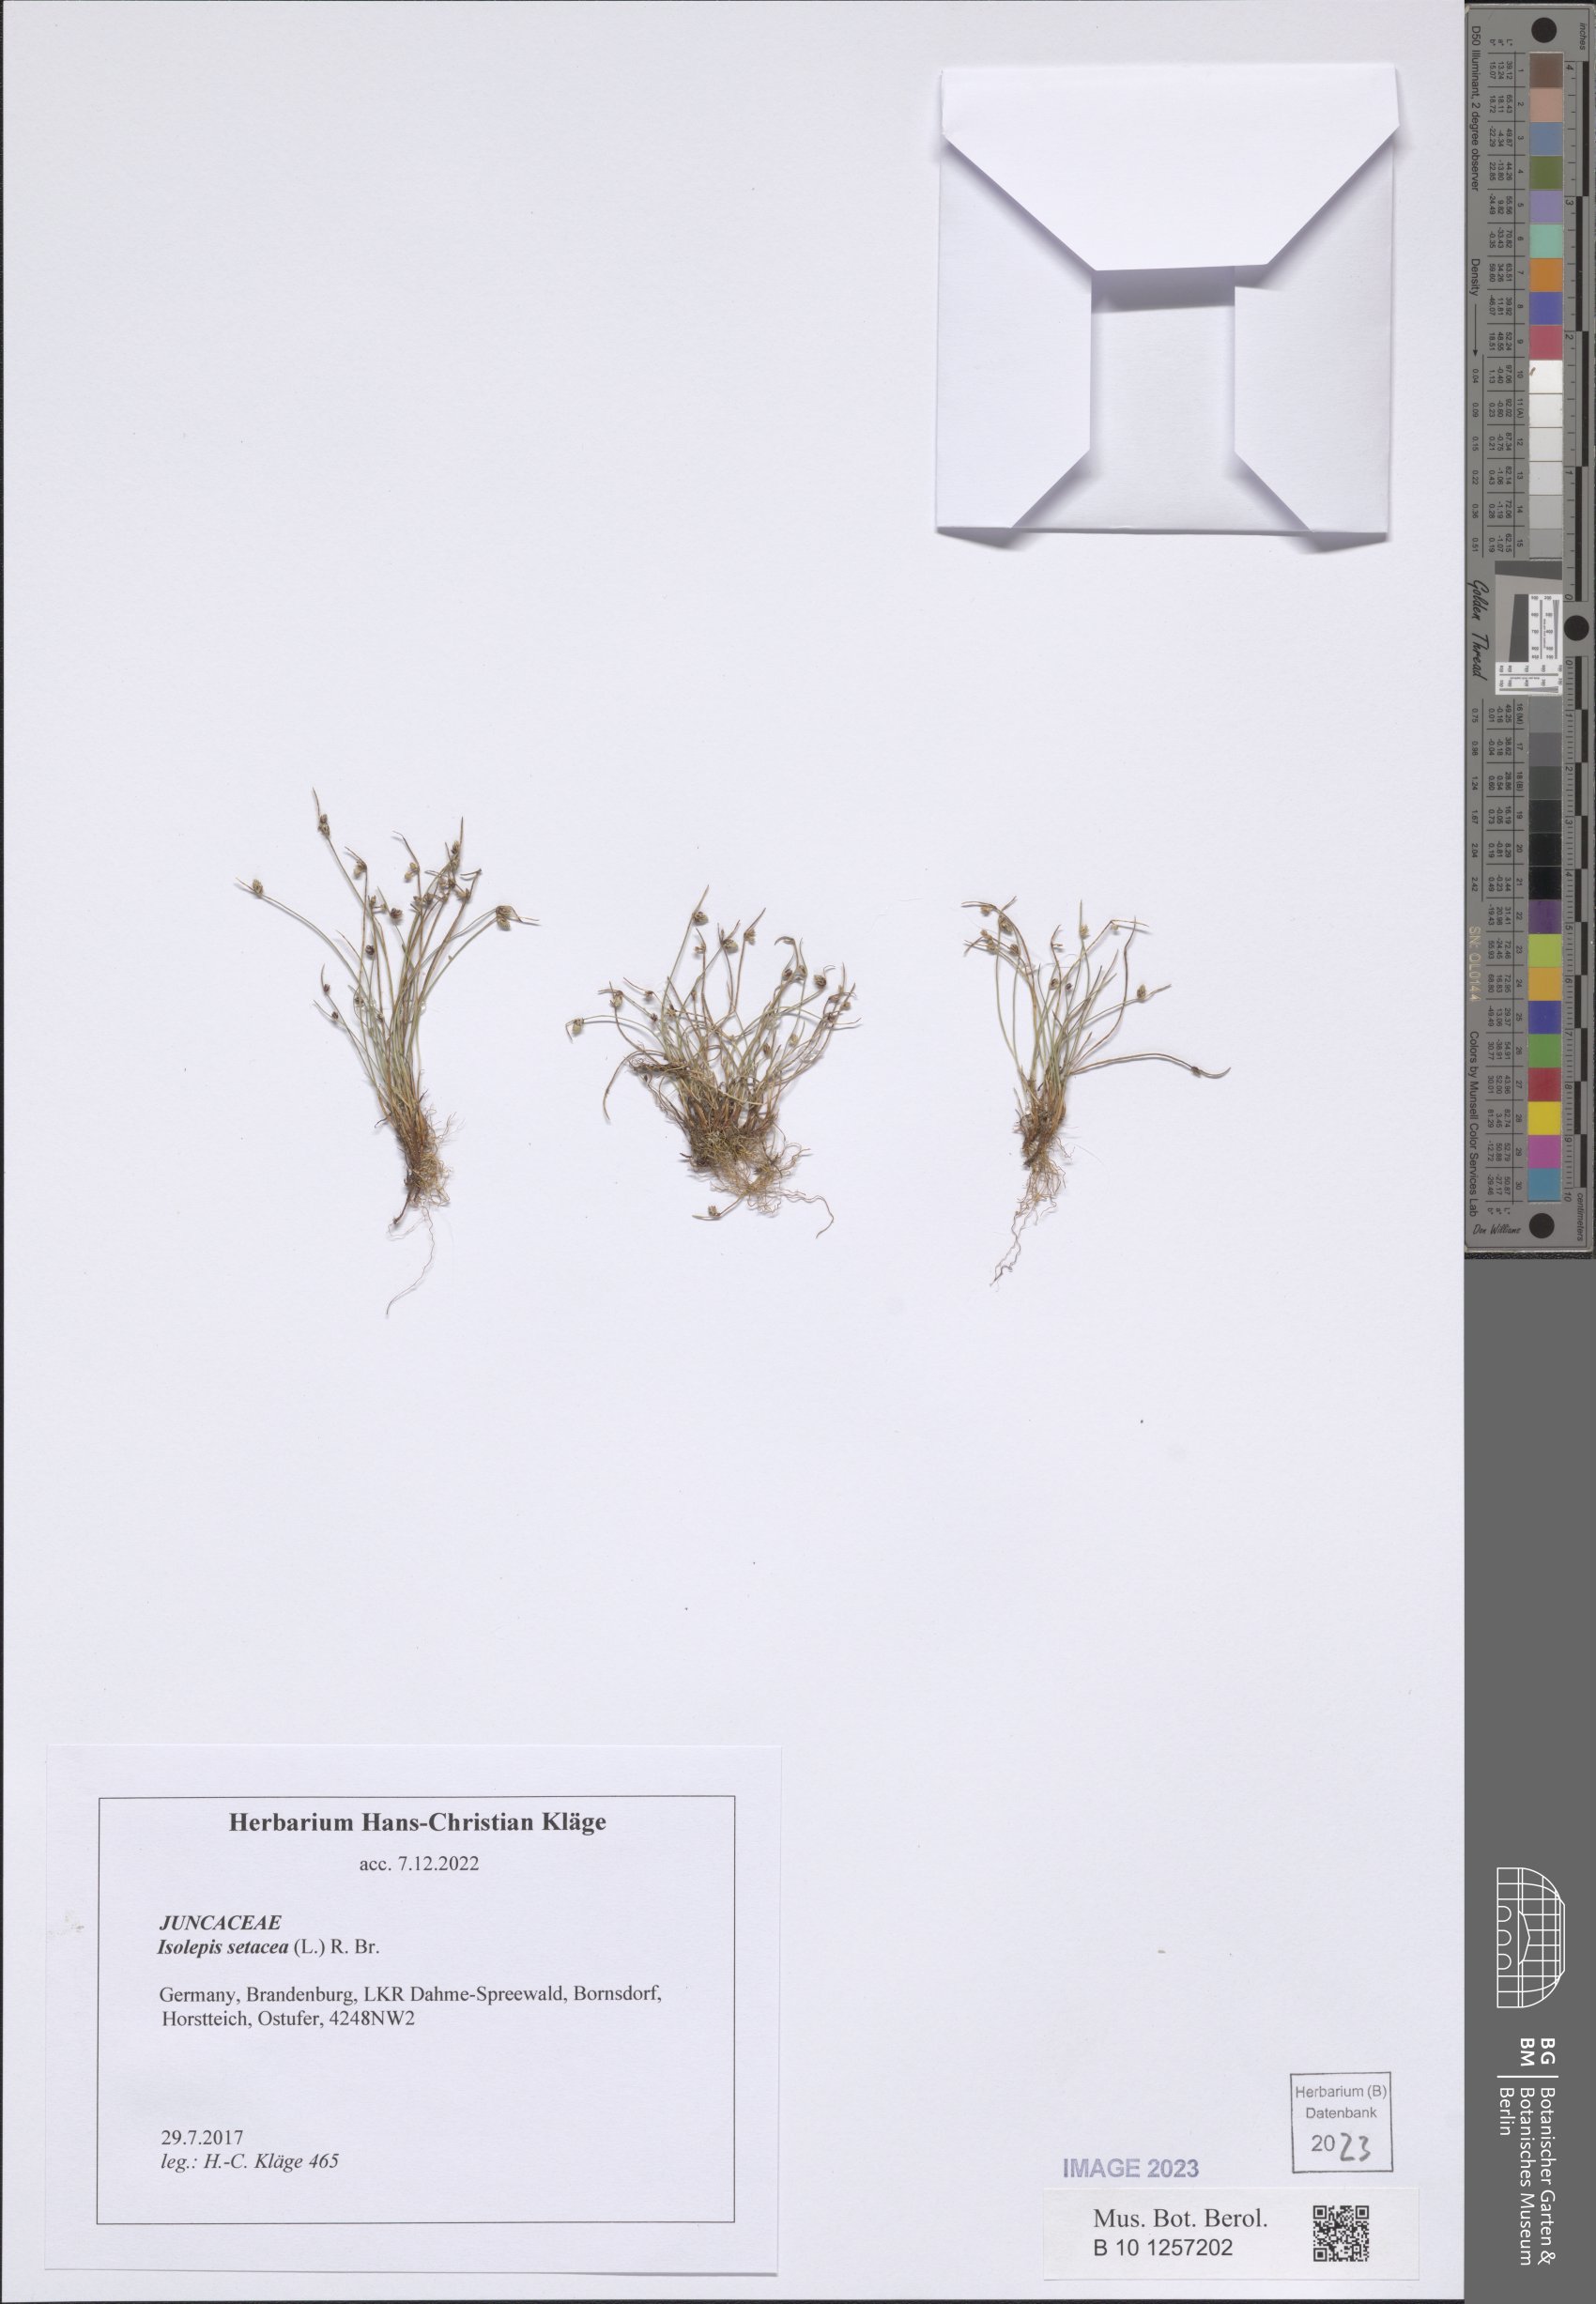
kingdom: Plantae
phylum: Tracheophyta
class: Liliopsida
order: Poales
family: Cyperaceae
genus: Isolepis
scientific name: Isolepis setacea
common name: Bristle club-rush
